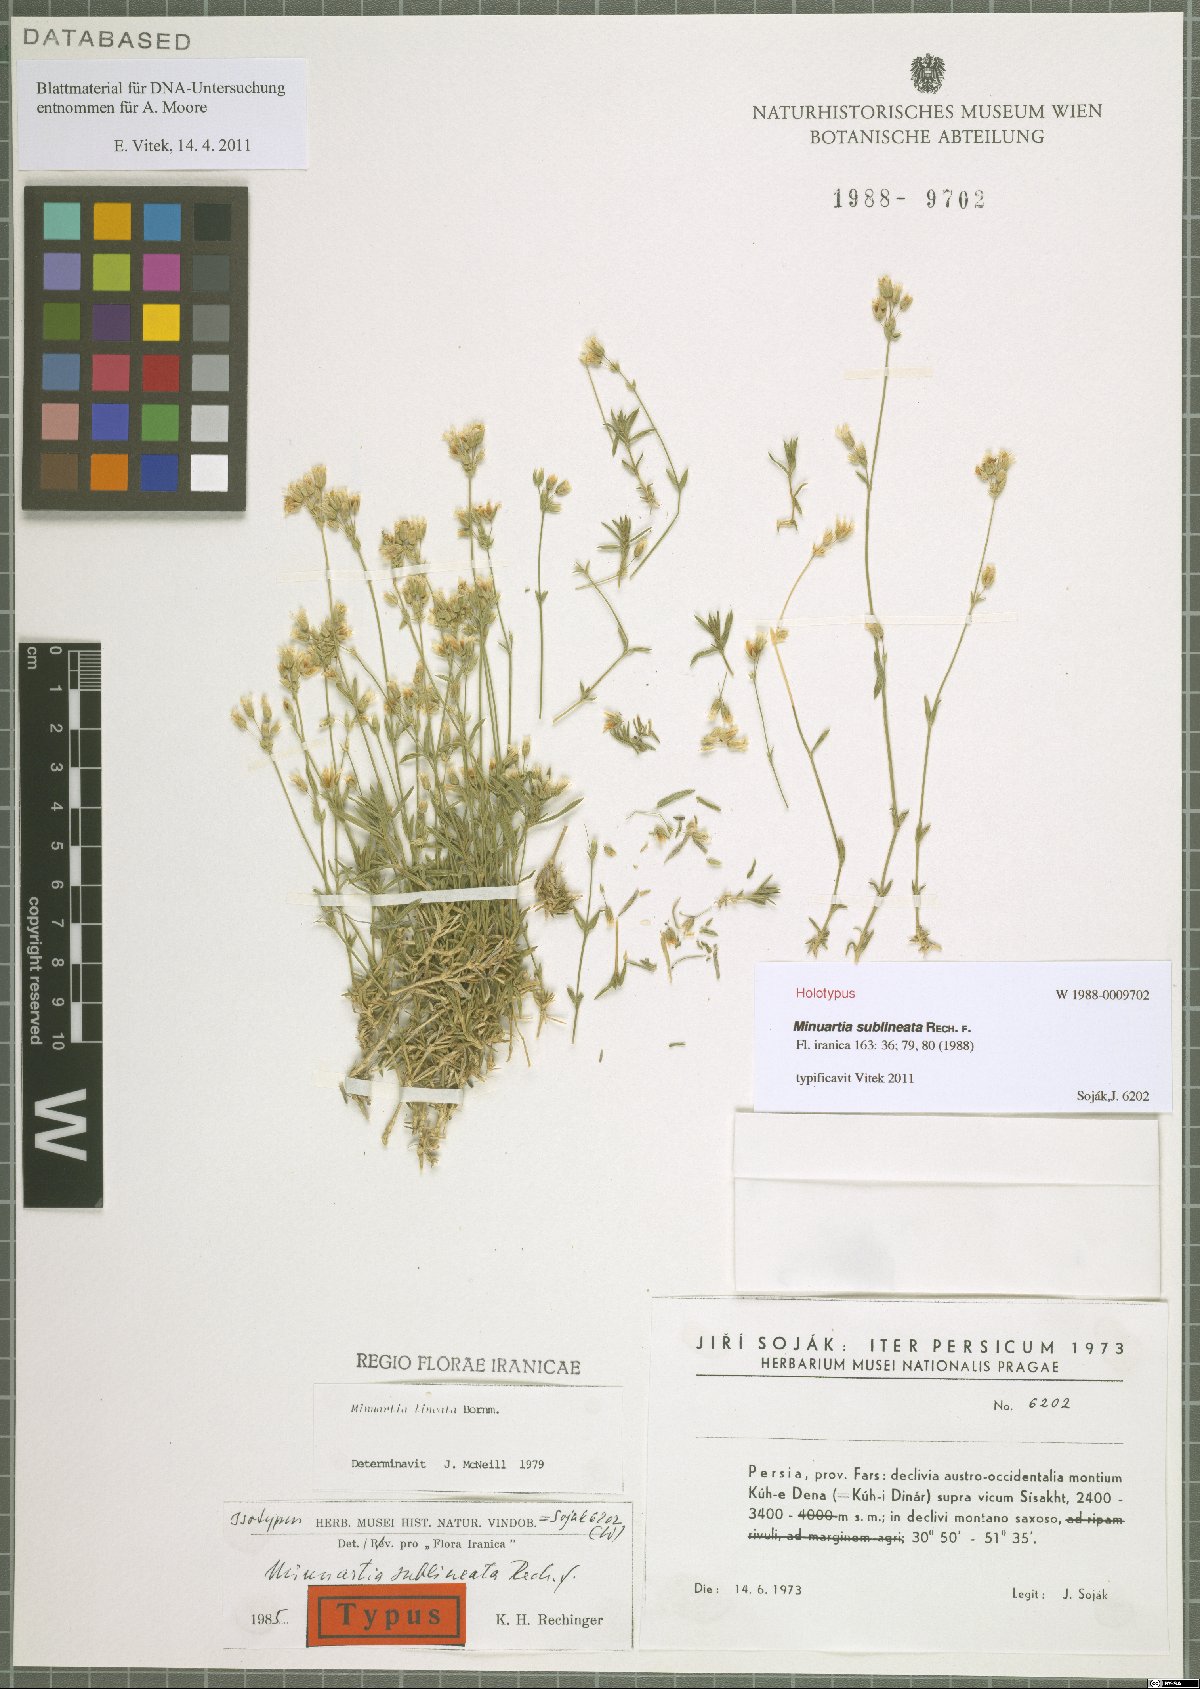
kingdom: Plantae
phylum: Tracheophyta
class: Magnoliopsida
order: Caryophyllales
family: Caryophyllaceae
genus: Sabulina
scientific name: Sabulina sublineata
